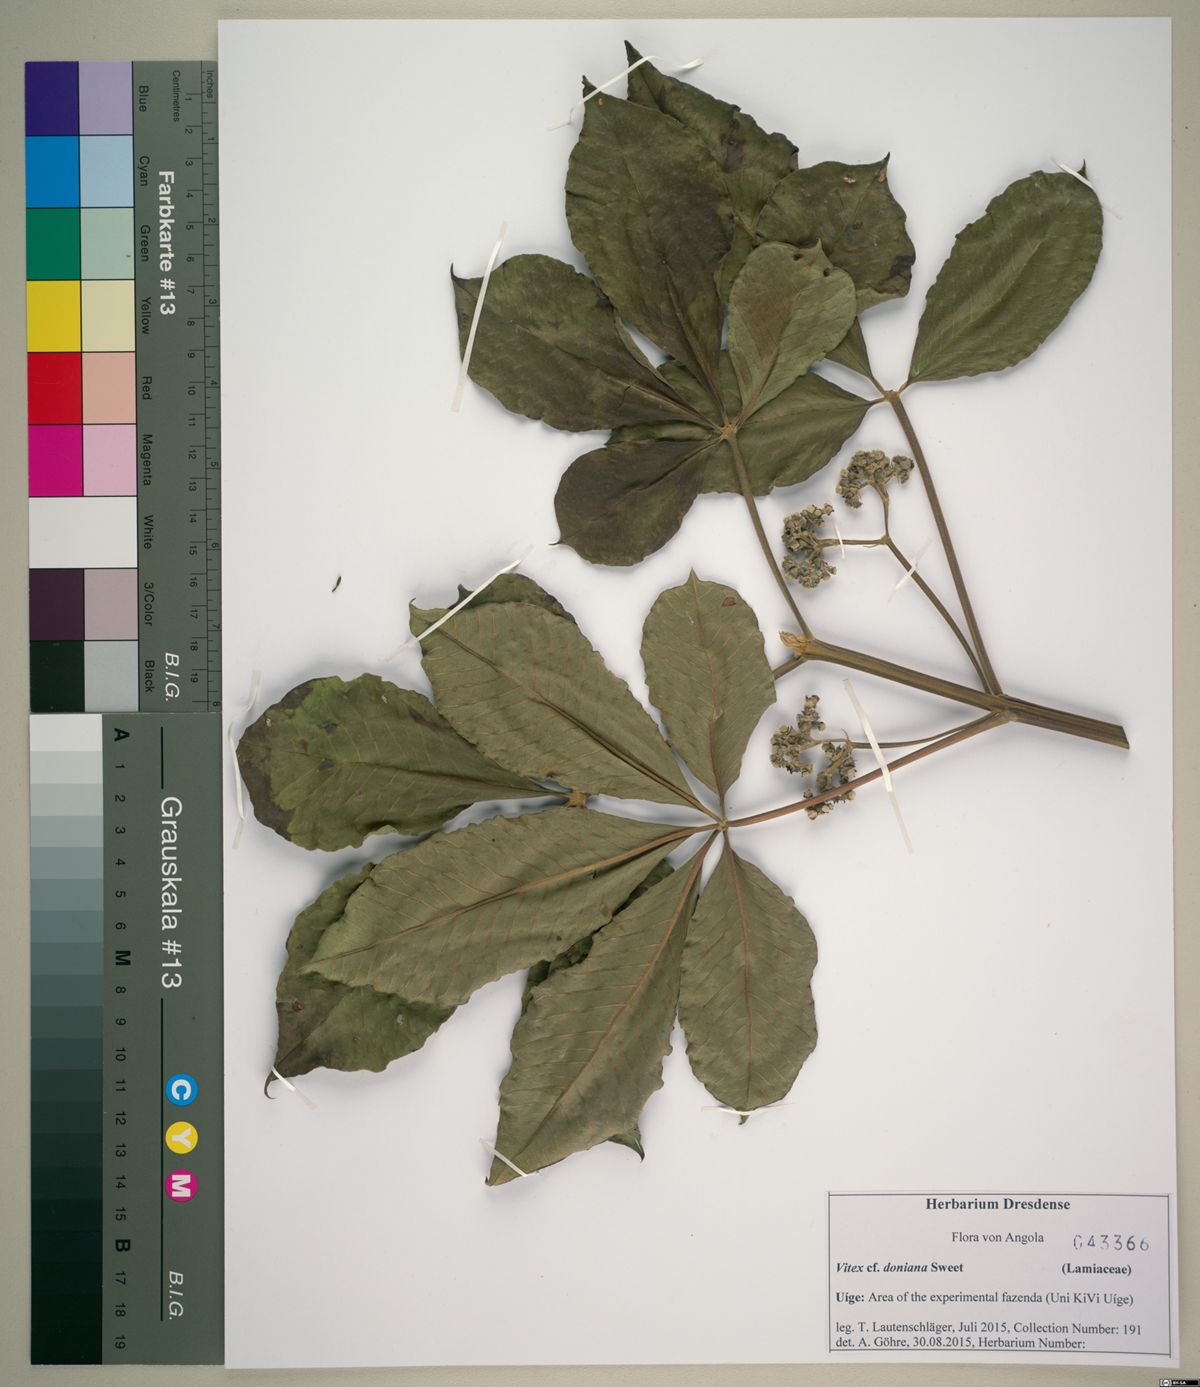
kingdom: Plantae
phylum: Tracheophyta
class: Magnoliopsida
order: Lamiales
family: Lamiaceae
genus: Vitex
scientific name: Vitex doniana
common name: Black plum
